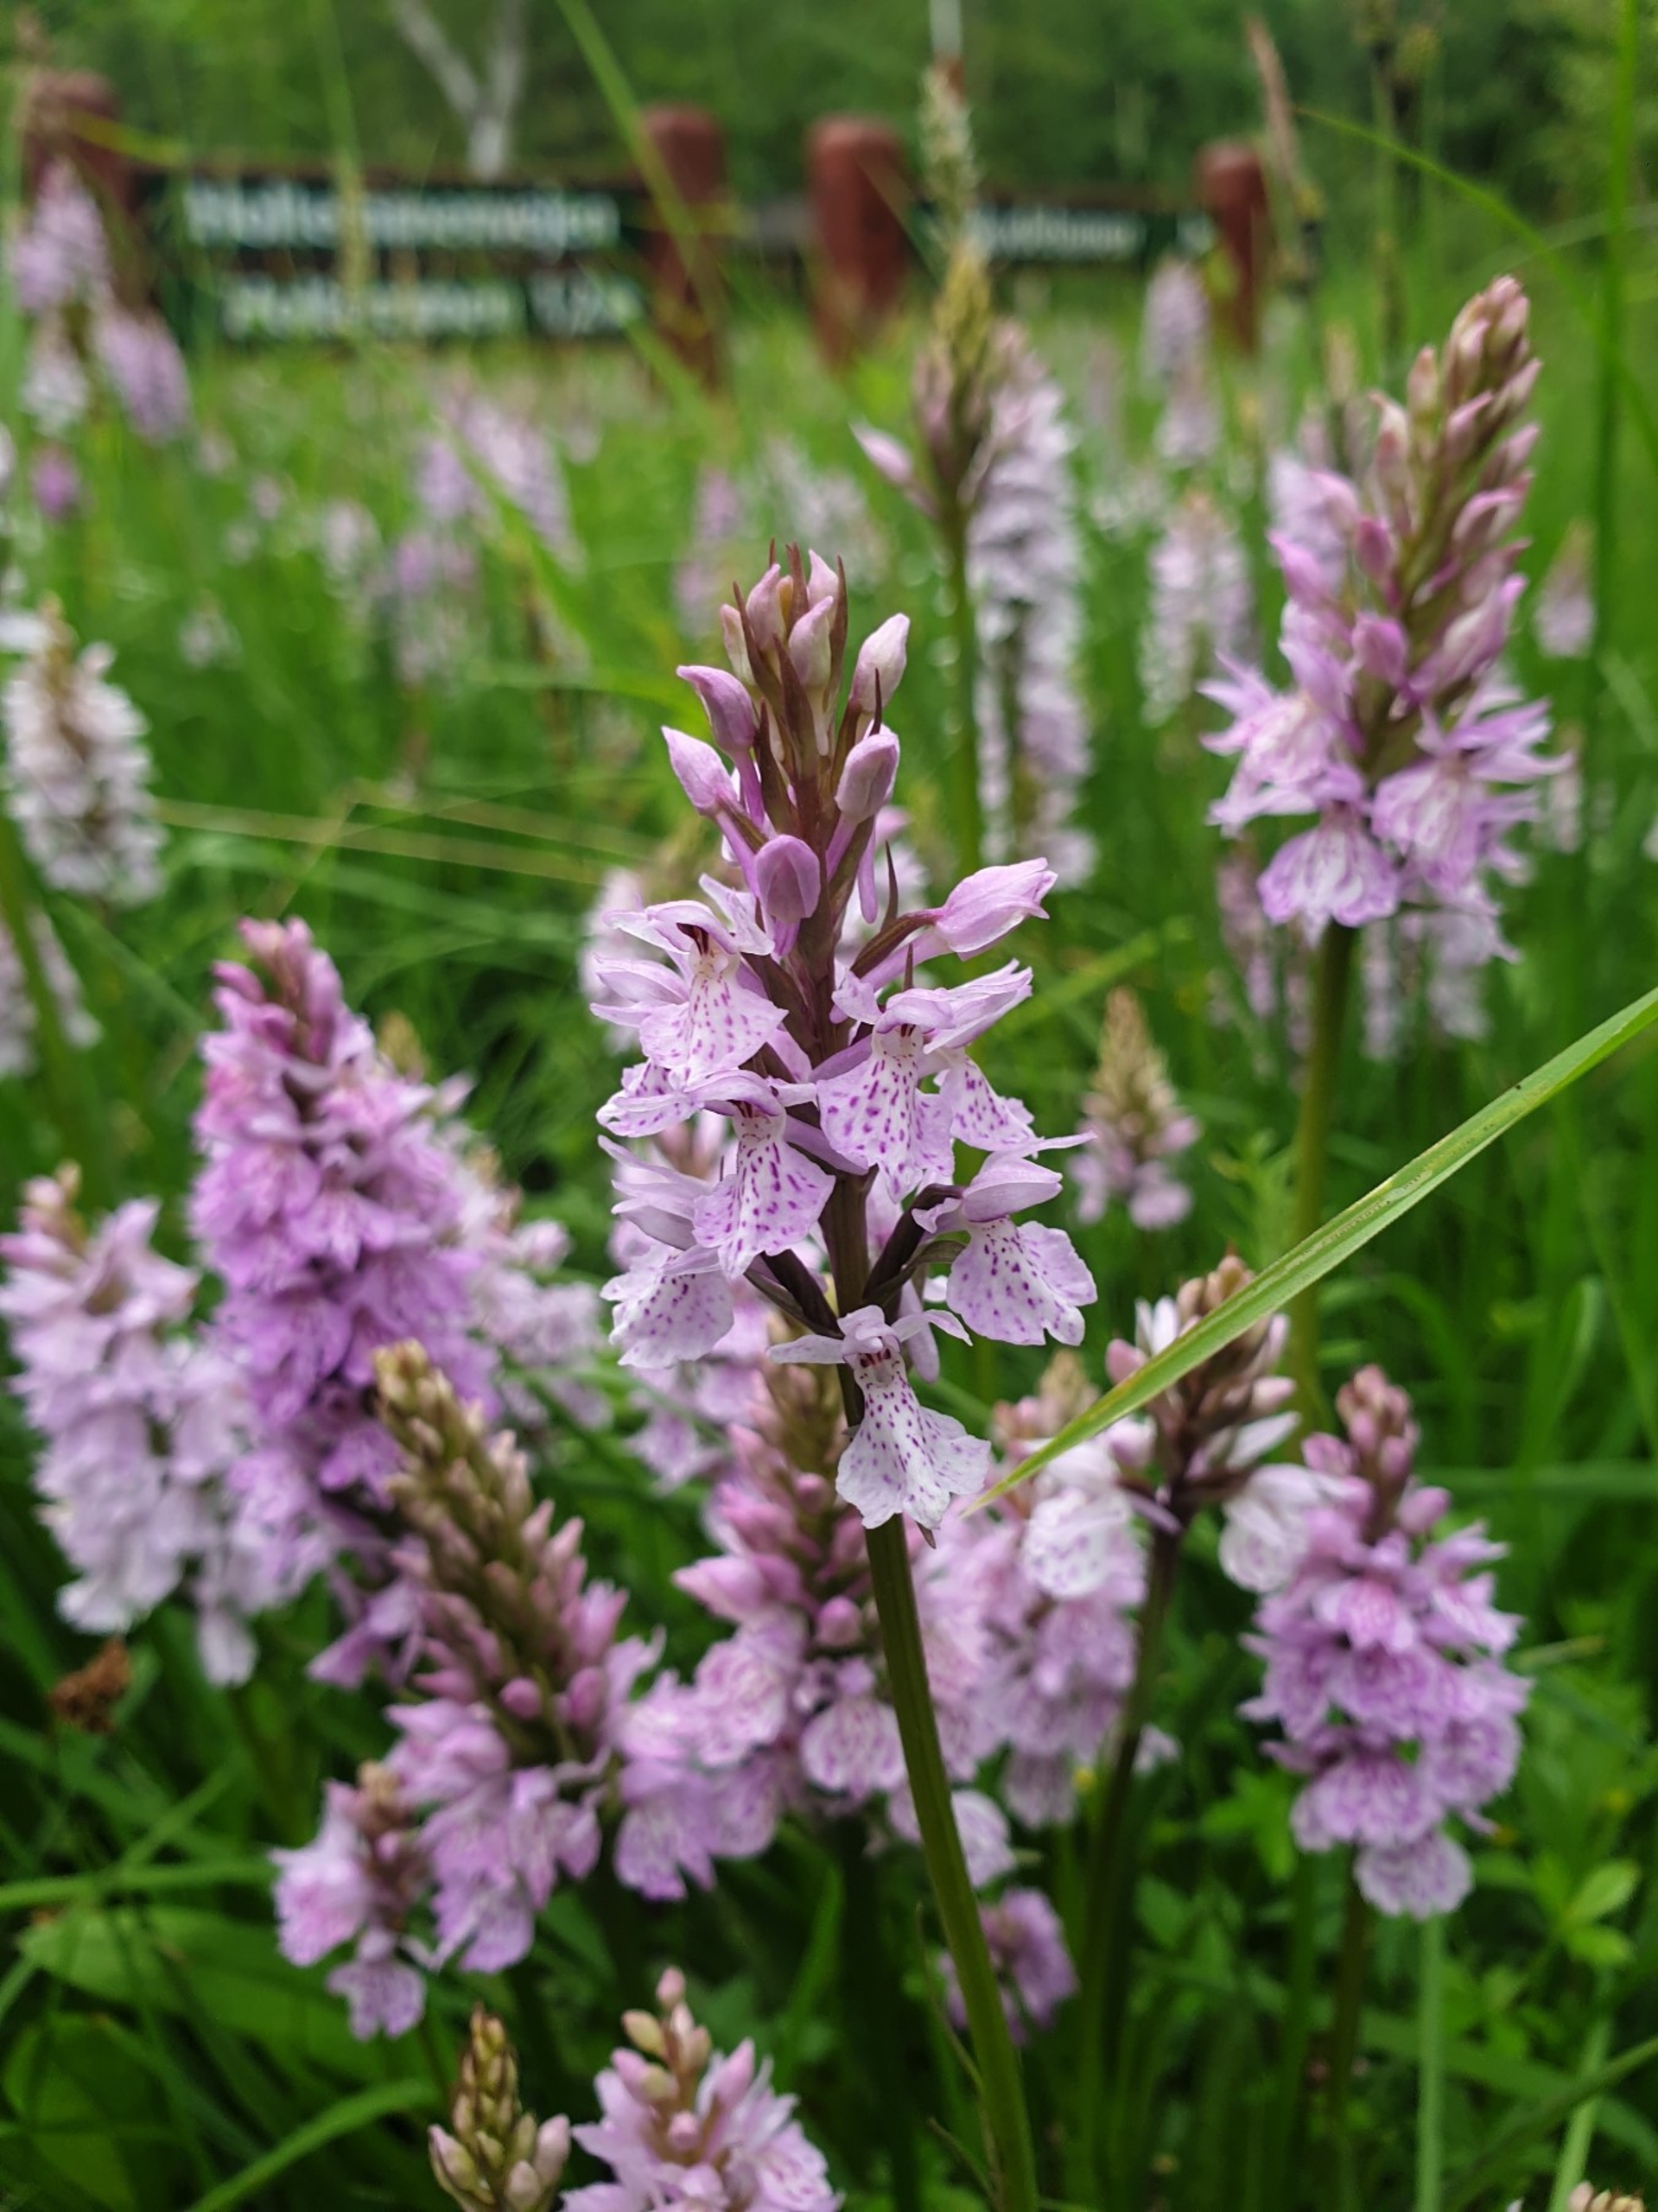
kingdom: Plantae
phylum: Tracheophyta
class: Liliopsida
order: Asparagales
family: Orchidaceae
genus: Dactylorhiza
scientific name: Dactylorhiza maculata
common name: Plettet gøgeurt
